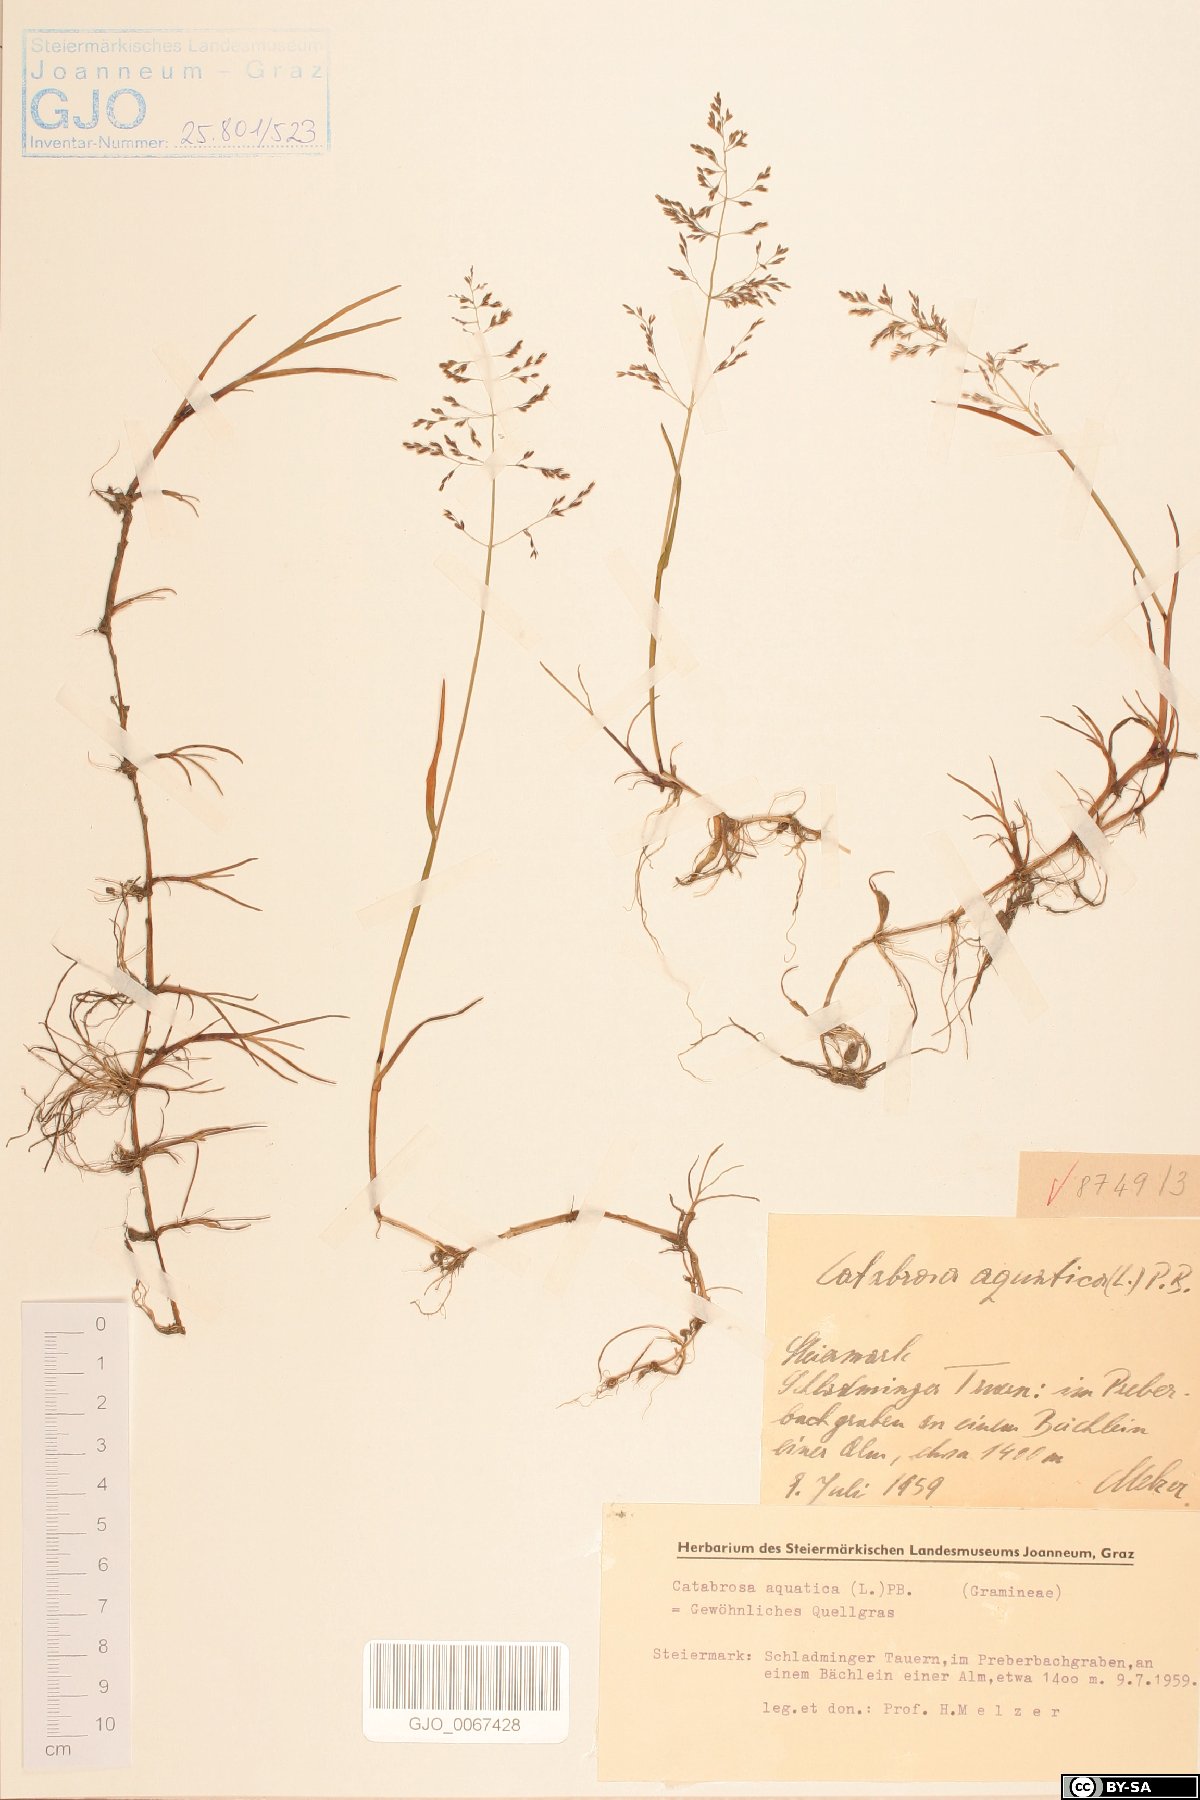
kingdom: Plantae
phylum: Tracheophyta
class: Liliopsida
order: Poales
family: Poaceae
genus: Catabrosa
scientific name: Catabrosa aquatica
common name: Whorl-grass
